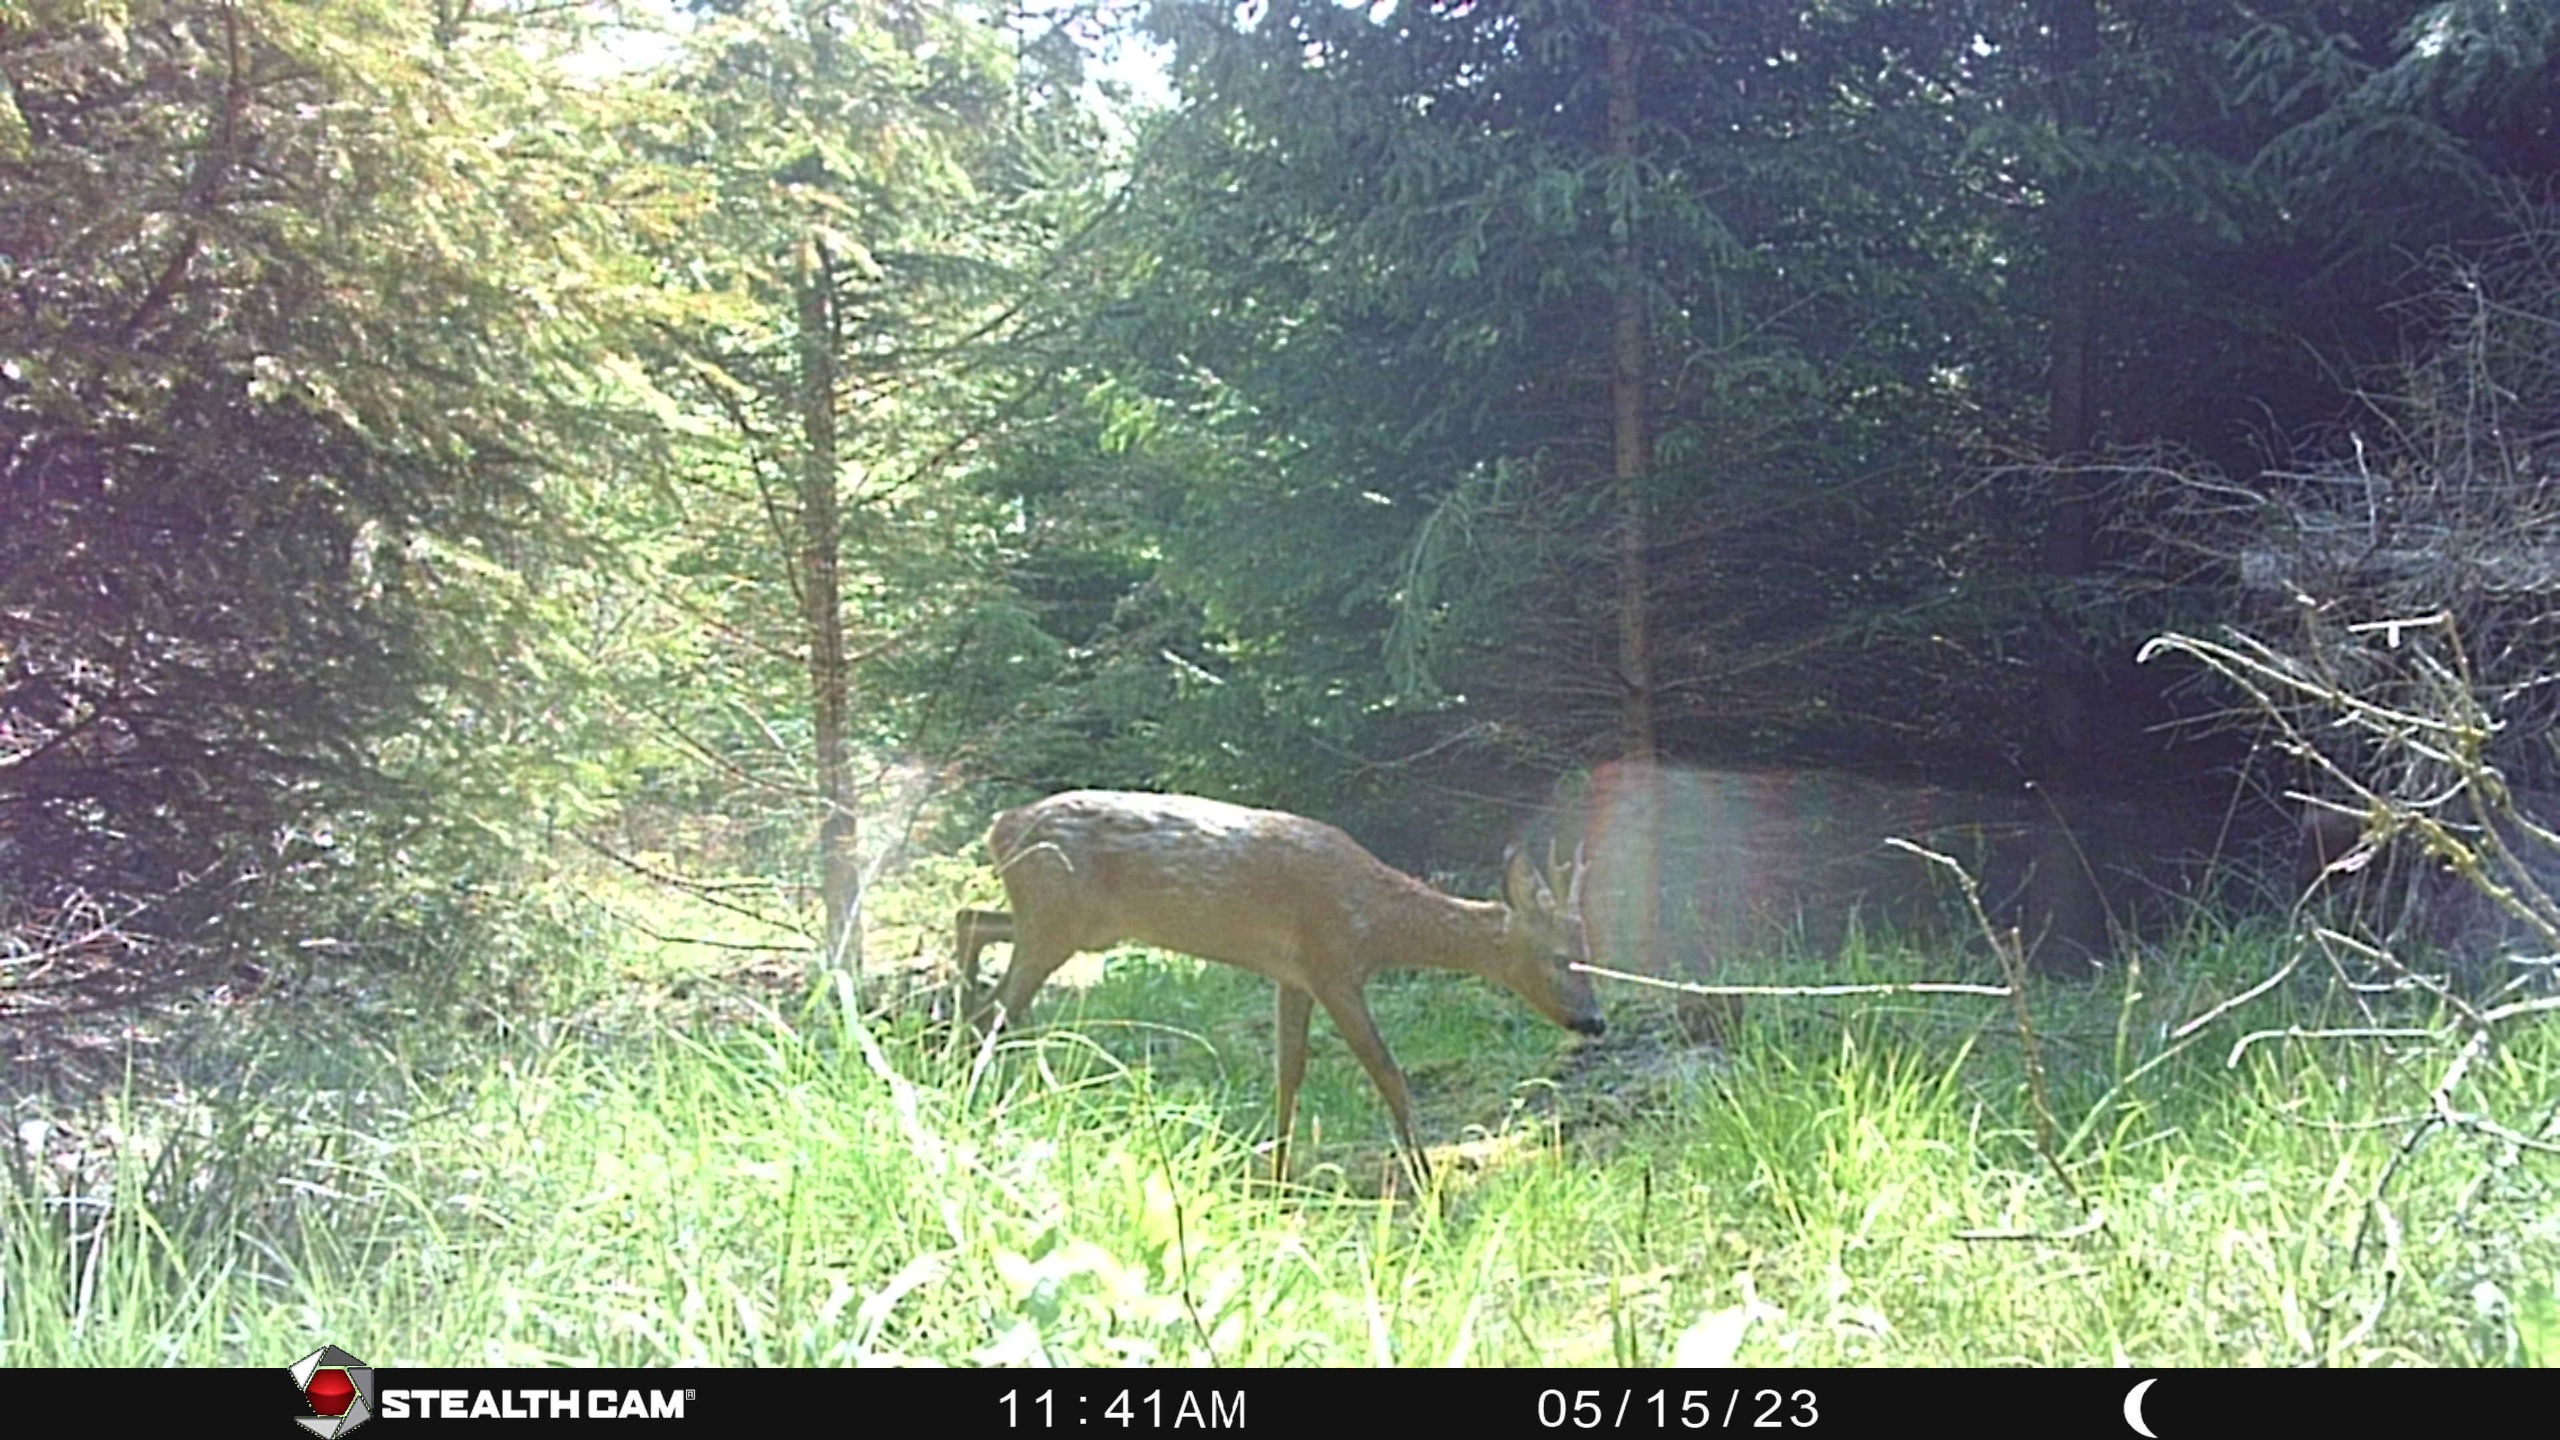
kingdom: Animalia
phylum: Chordata
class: Mammalia
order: Artiodactyla
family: Cervidae
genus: Capreolus
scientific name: Capreolus capreolus
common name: Rådyr
